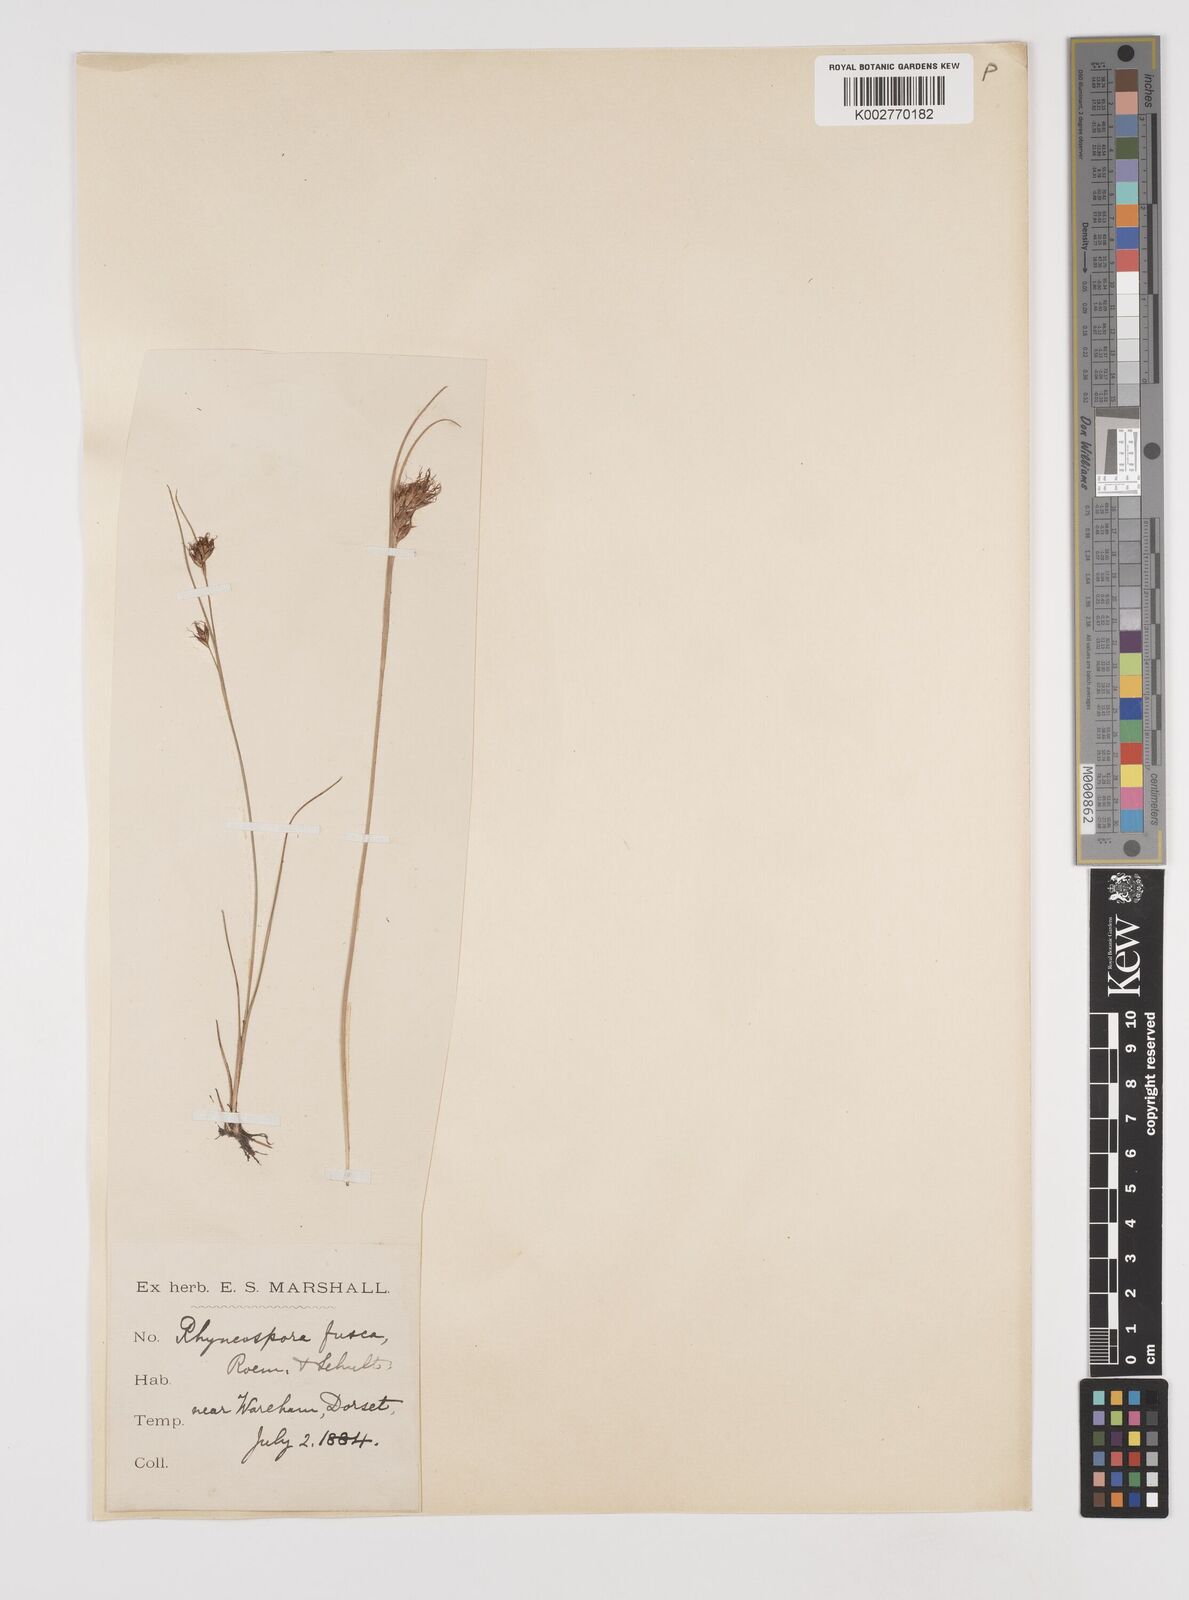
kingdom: Plantae
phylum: Tracheophyta
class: Liliopsida
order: Poales
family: Cyperaceae
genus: Rhynchospora
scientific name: Rhynchospora fusca
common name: Brown beak-sedge
